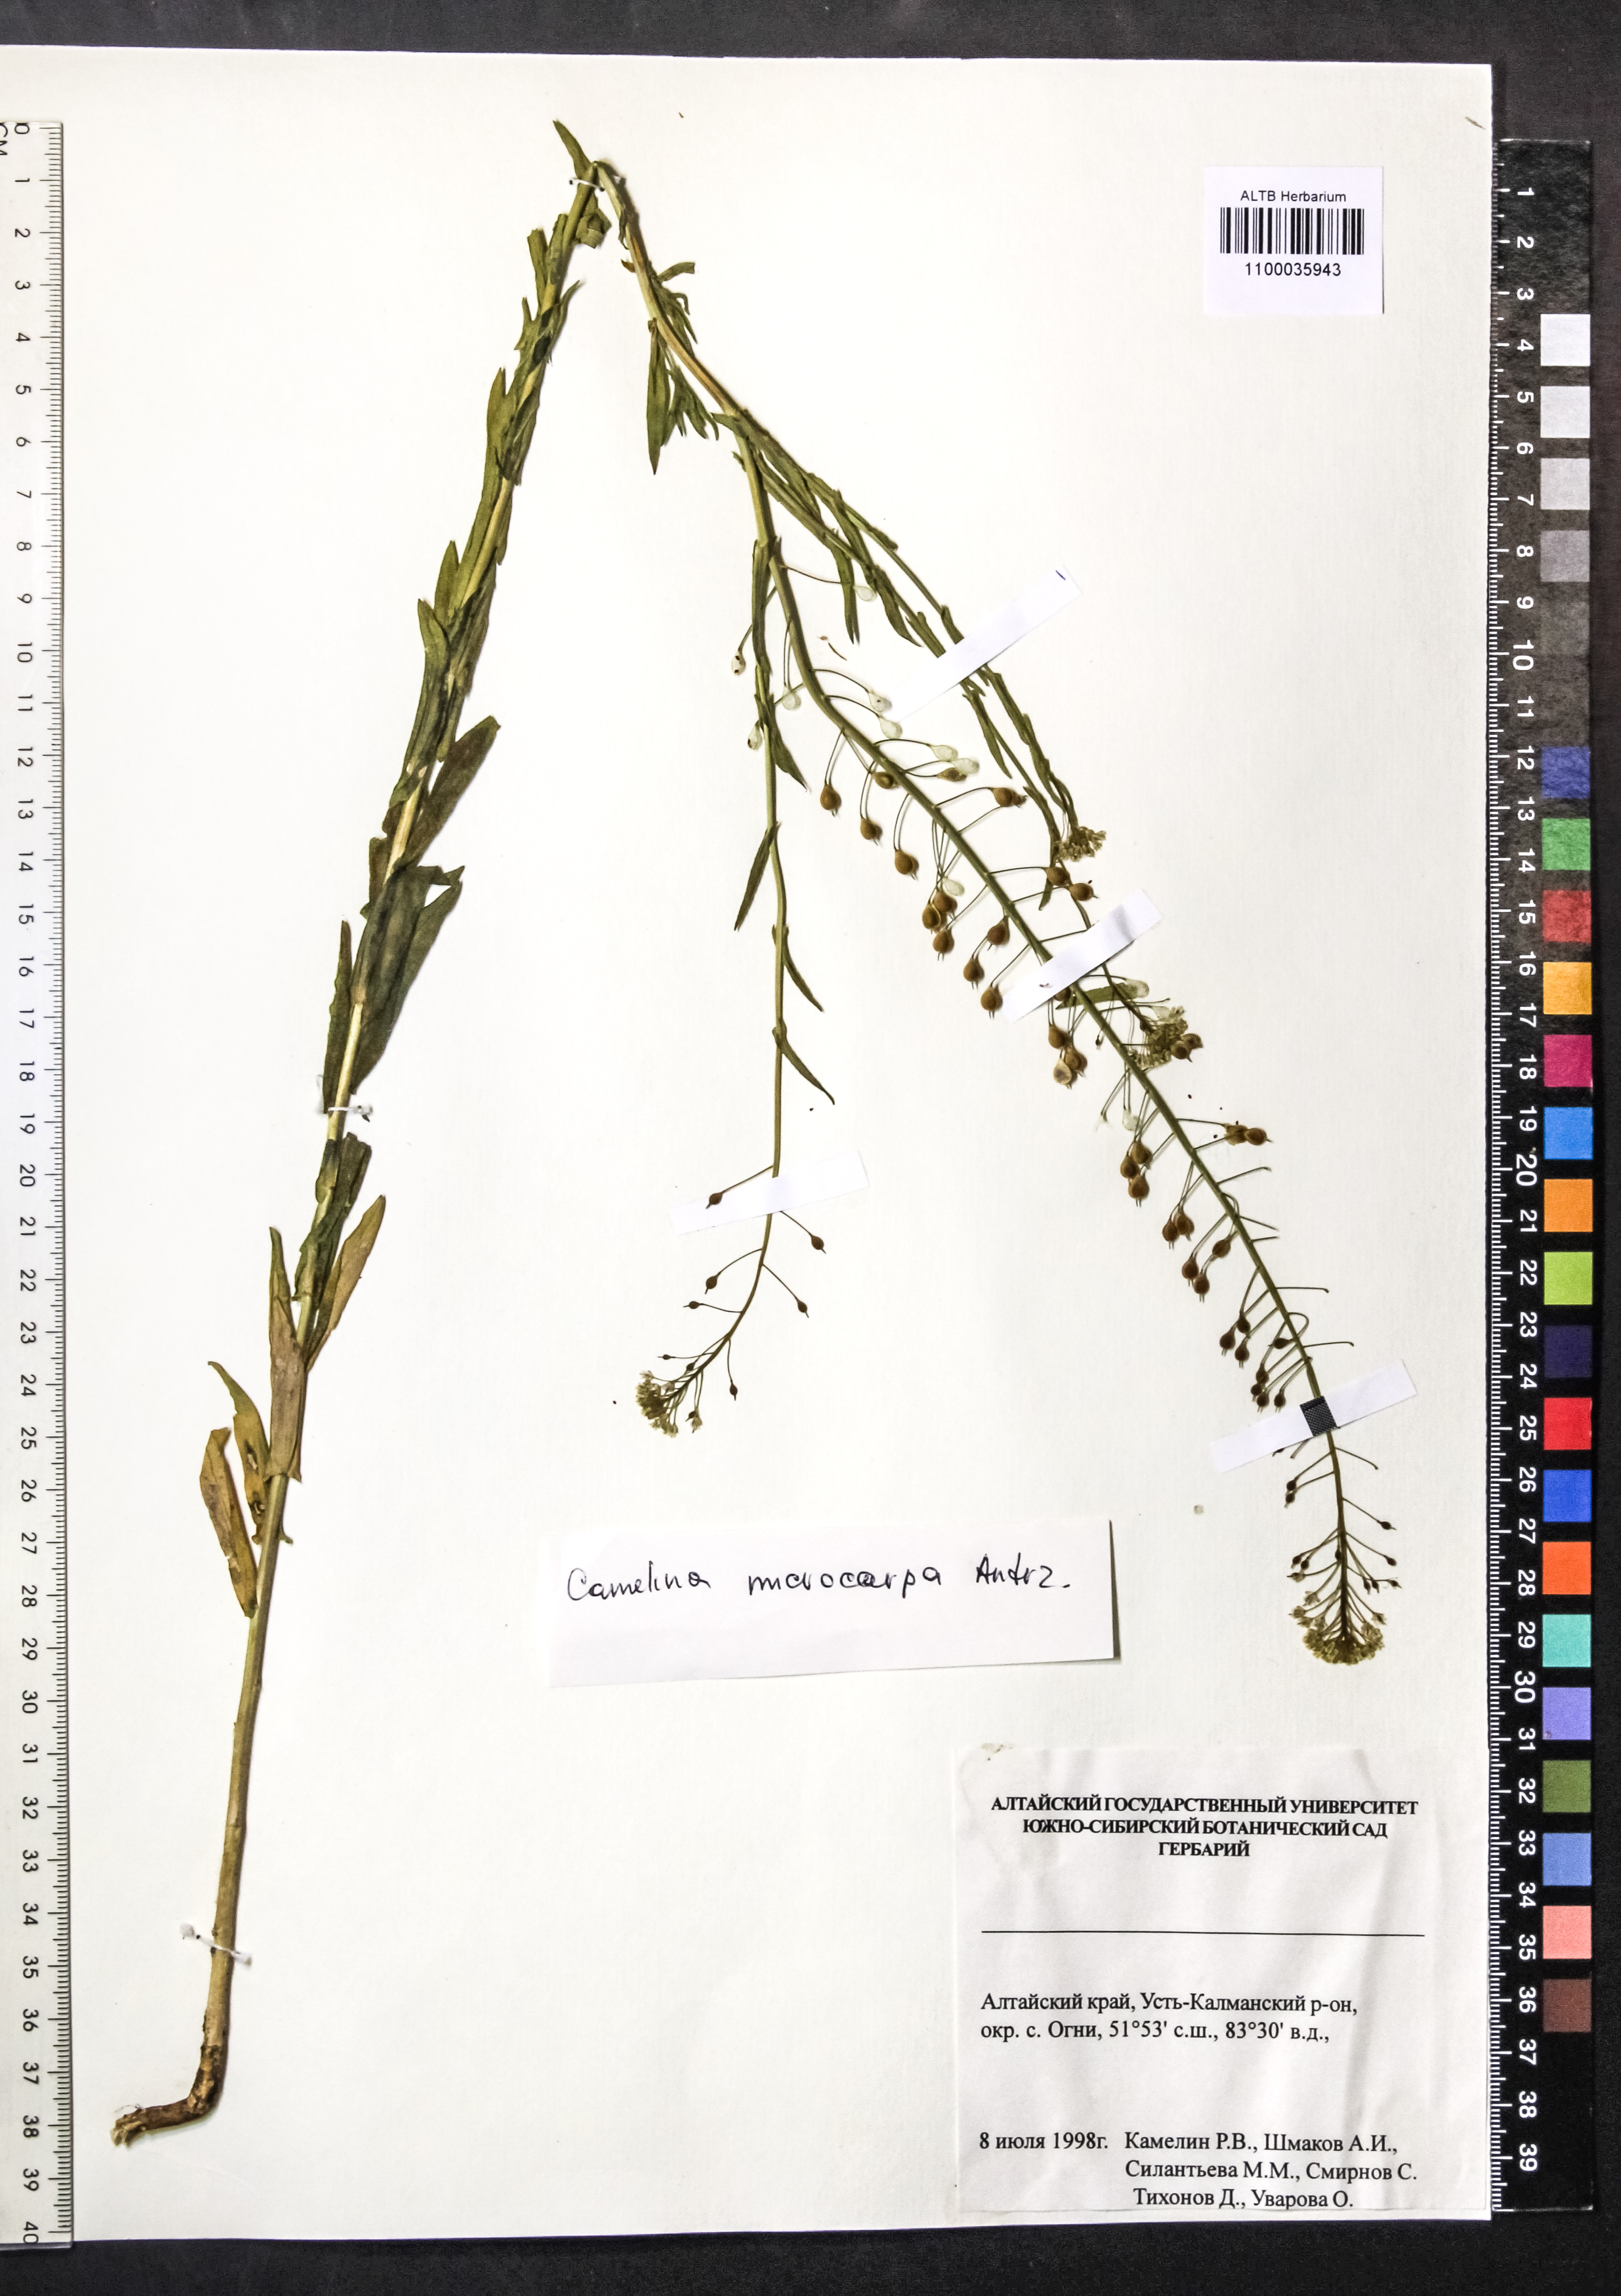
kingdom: Plantae
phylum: Tracheophyta
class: Magnoliopsida
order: Brassicales
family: Brassicaceae
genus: Camelina
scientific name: Camelina microcarpa
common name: Lesser gold-of-pleasure
